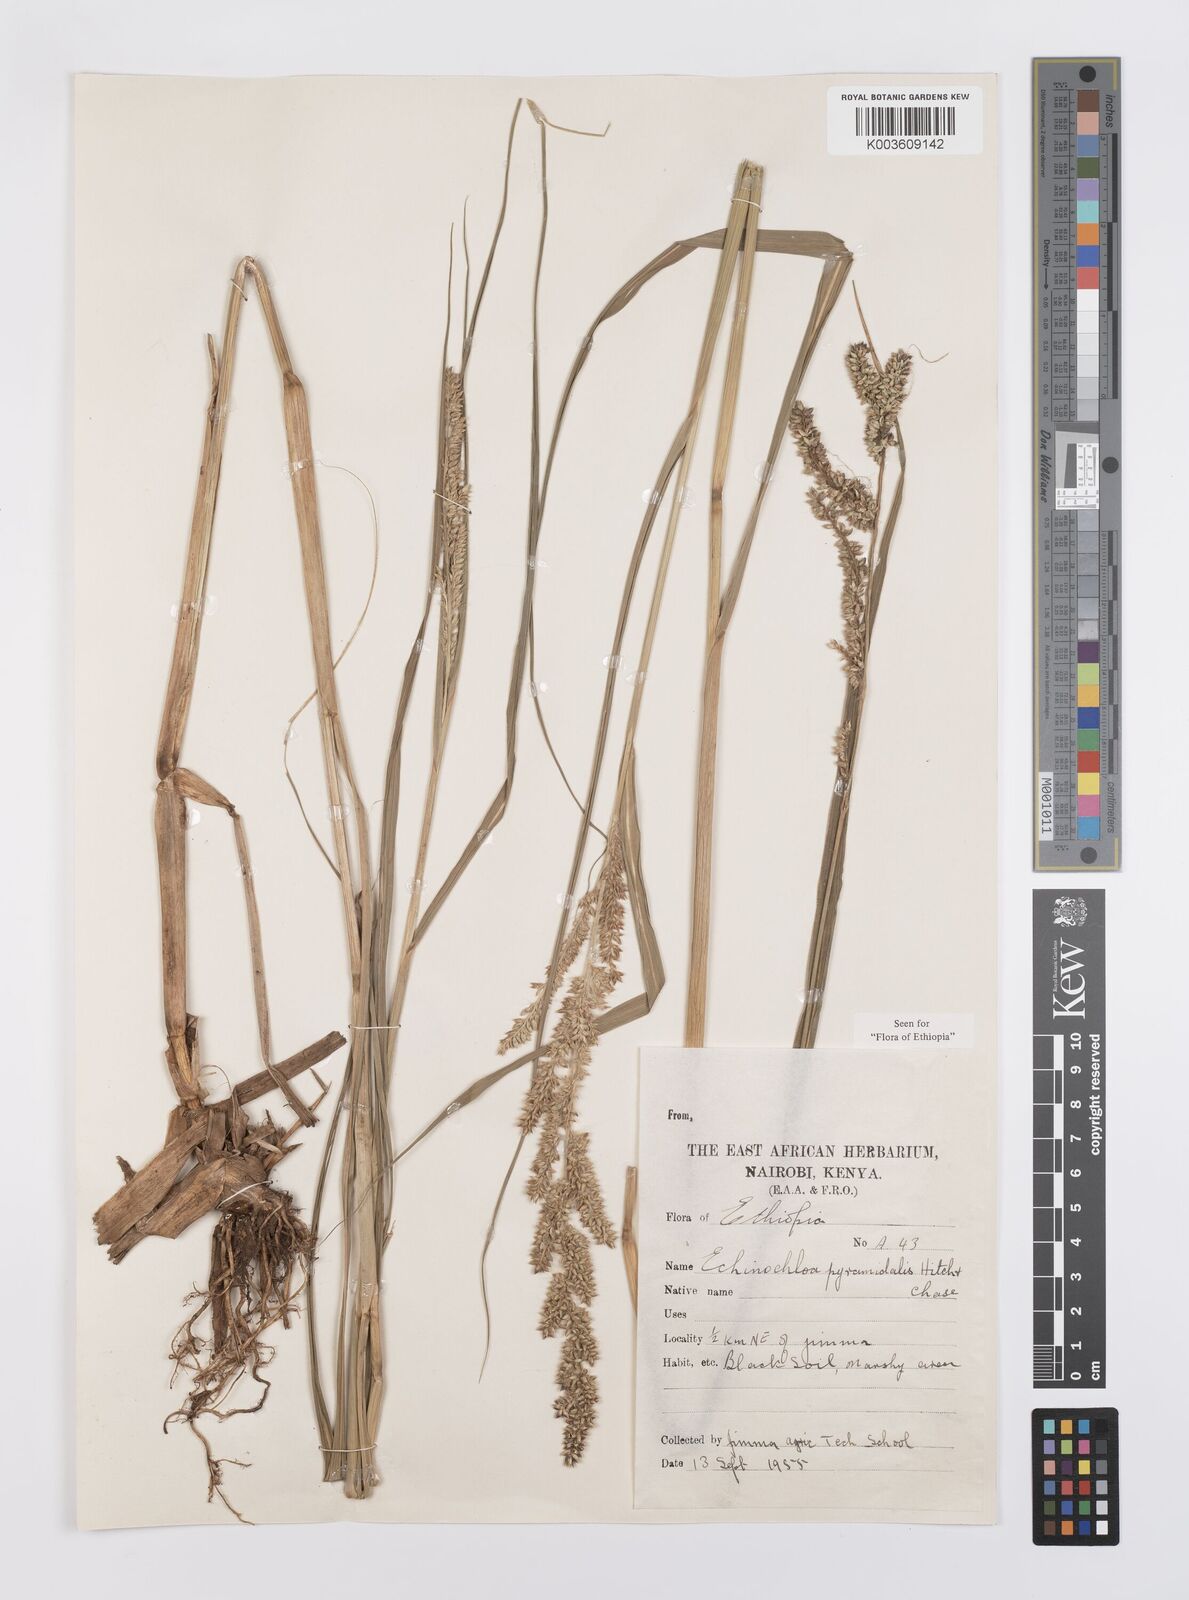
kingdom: Plantae
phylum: Tracheophyta
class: Liliopsida
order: Poales
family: Poaceae
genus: Echinochloa
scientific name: Echinochloa pyramidalis
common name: Antelope grass
